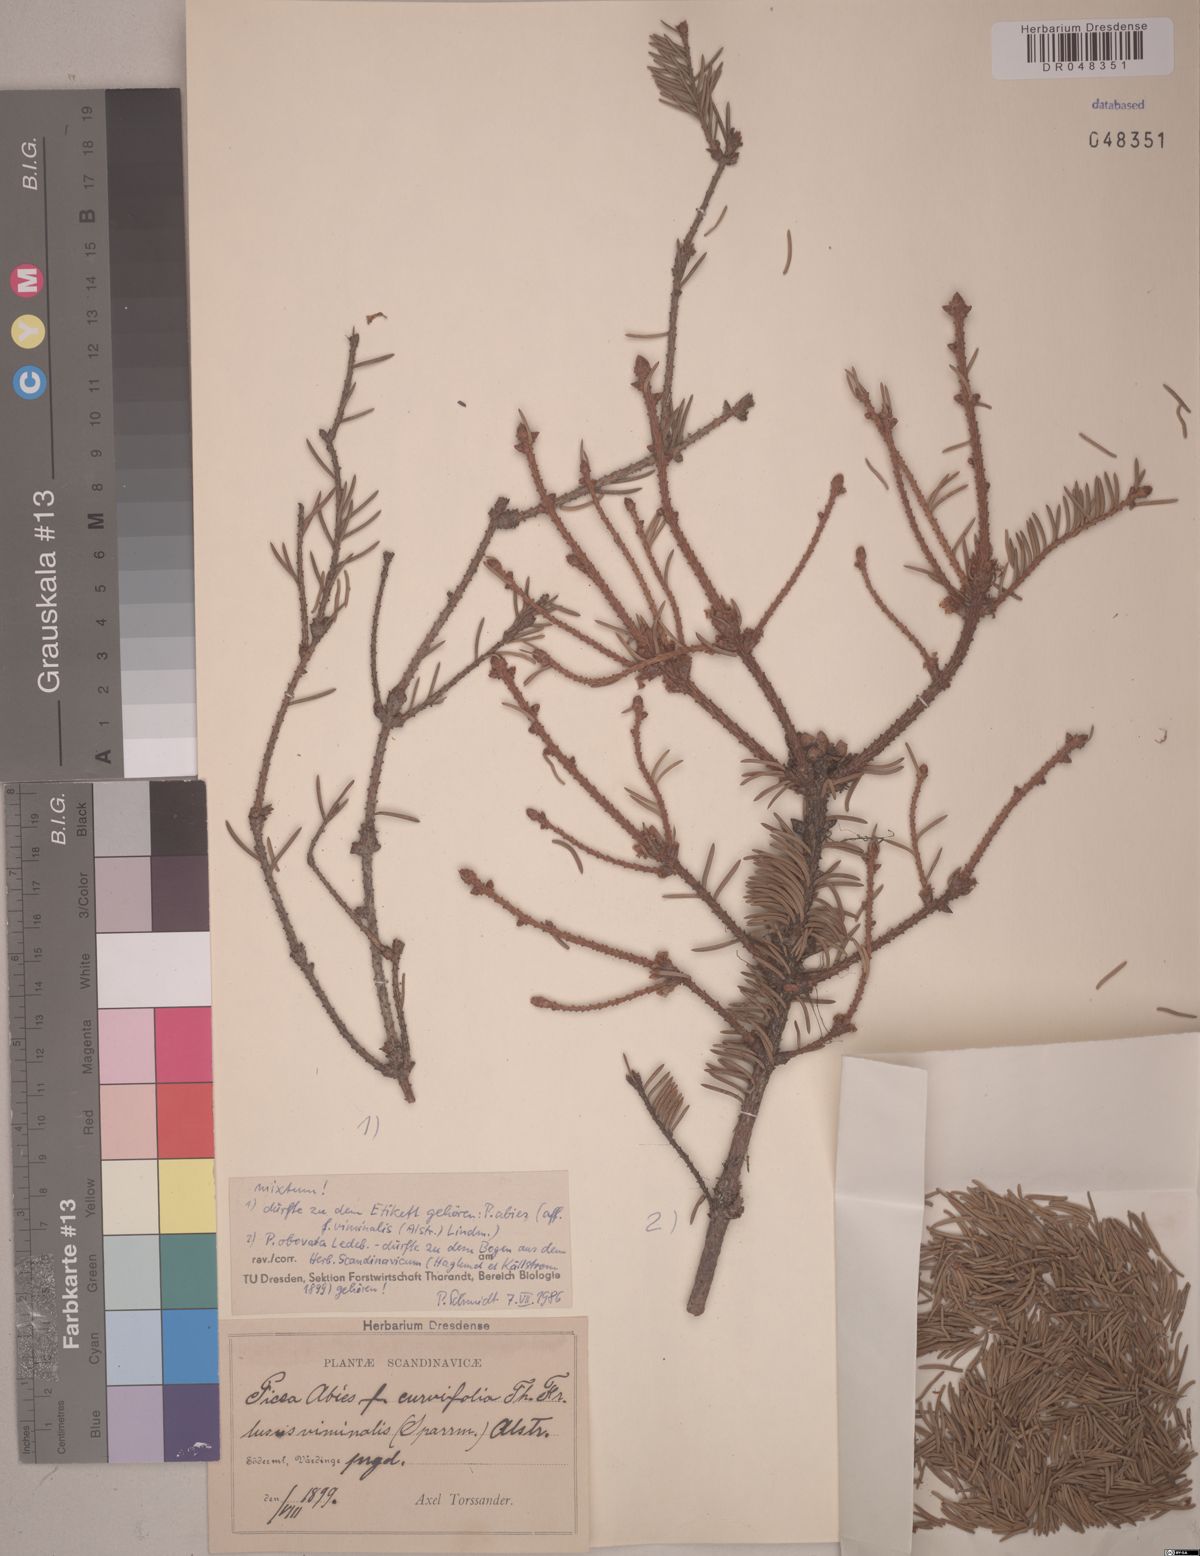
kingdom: Plantae
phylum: Tracheophyta
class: Pinopsida
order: Pinales
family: Pinaceae
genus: Picea
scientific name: Picea abies
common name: Norway spruce
